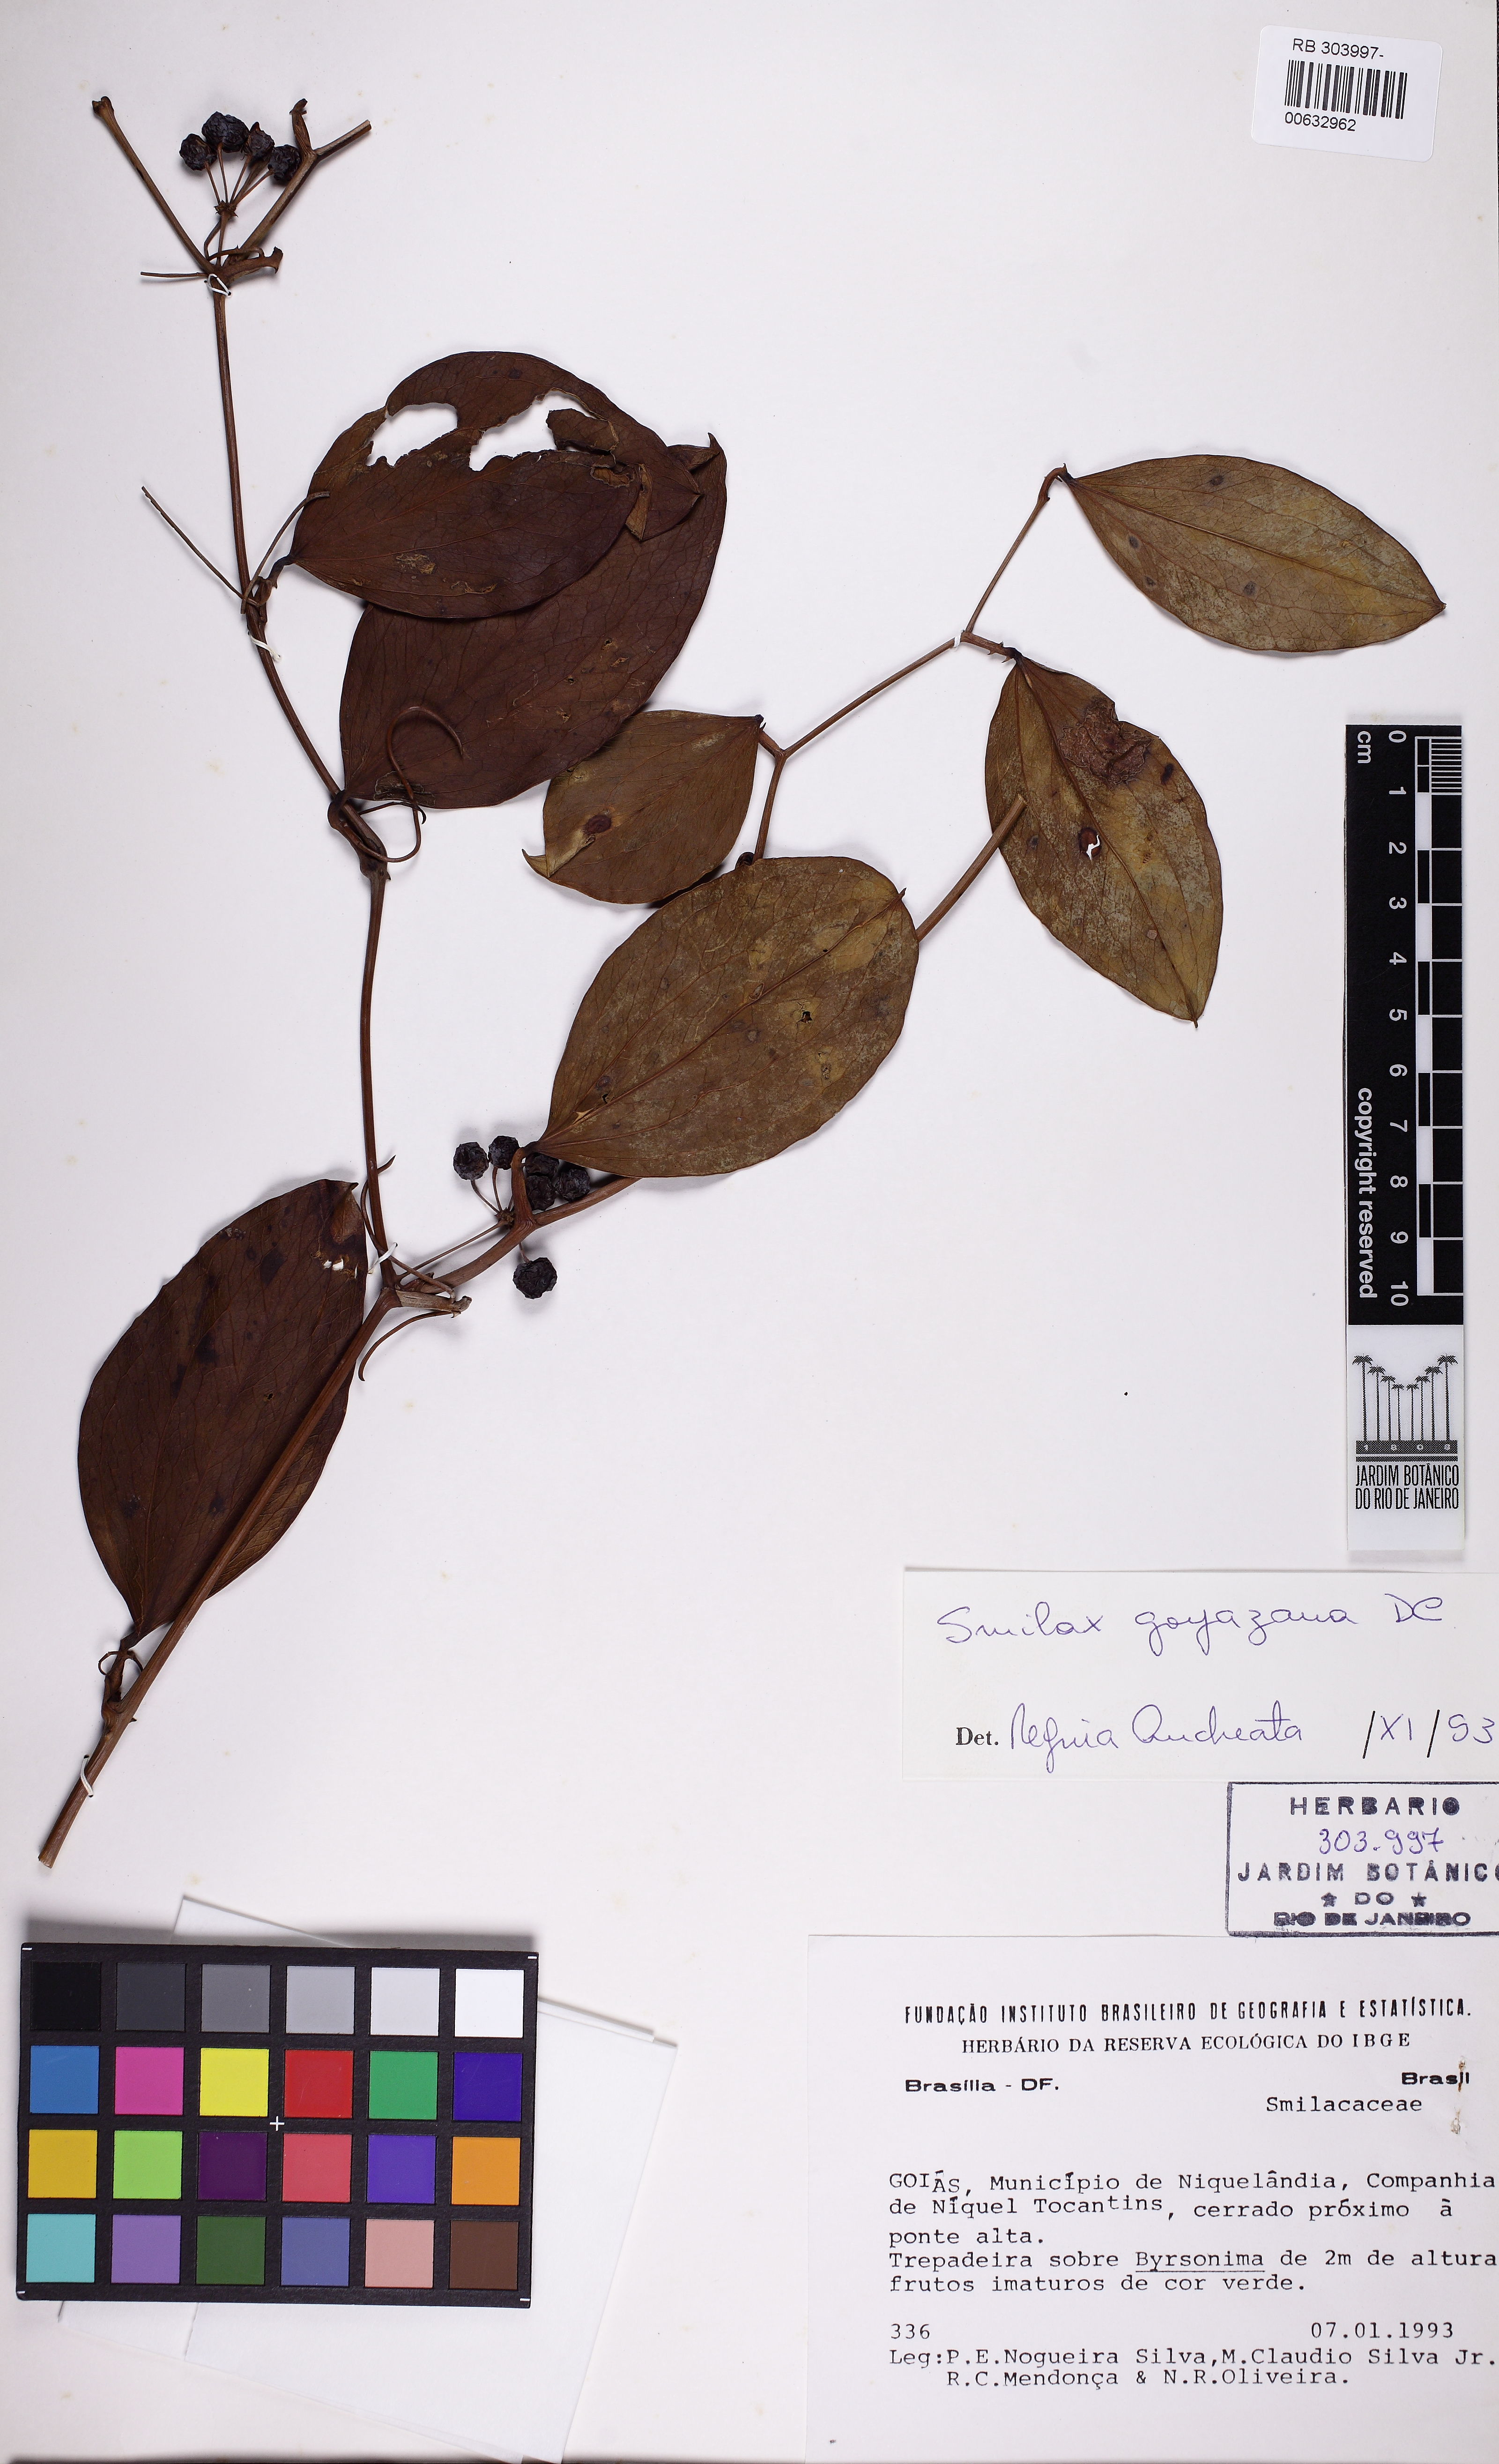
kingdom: Plantae
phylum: Tracheophyta
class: Liliopsida
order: Liliales
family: Smilacaceae
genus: Smilax
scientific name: Smilax goyazana
